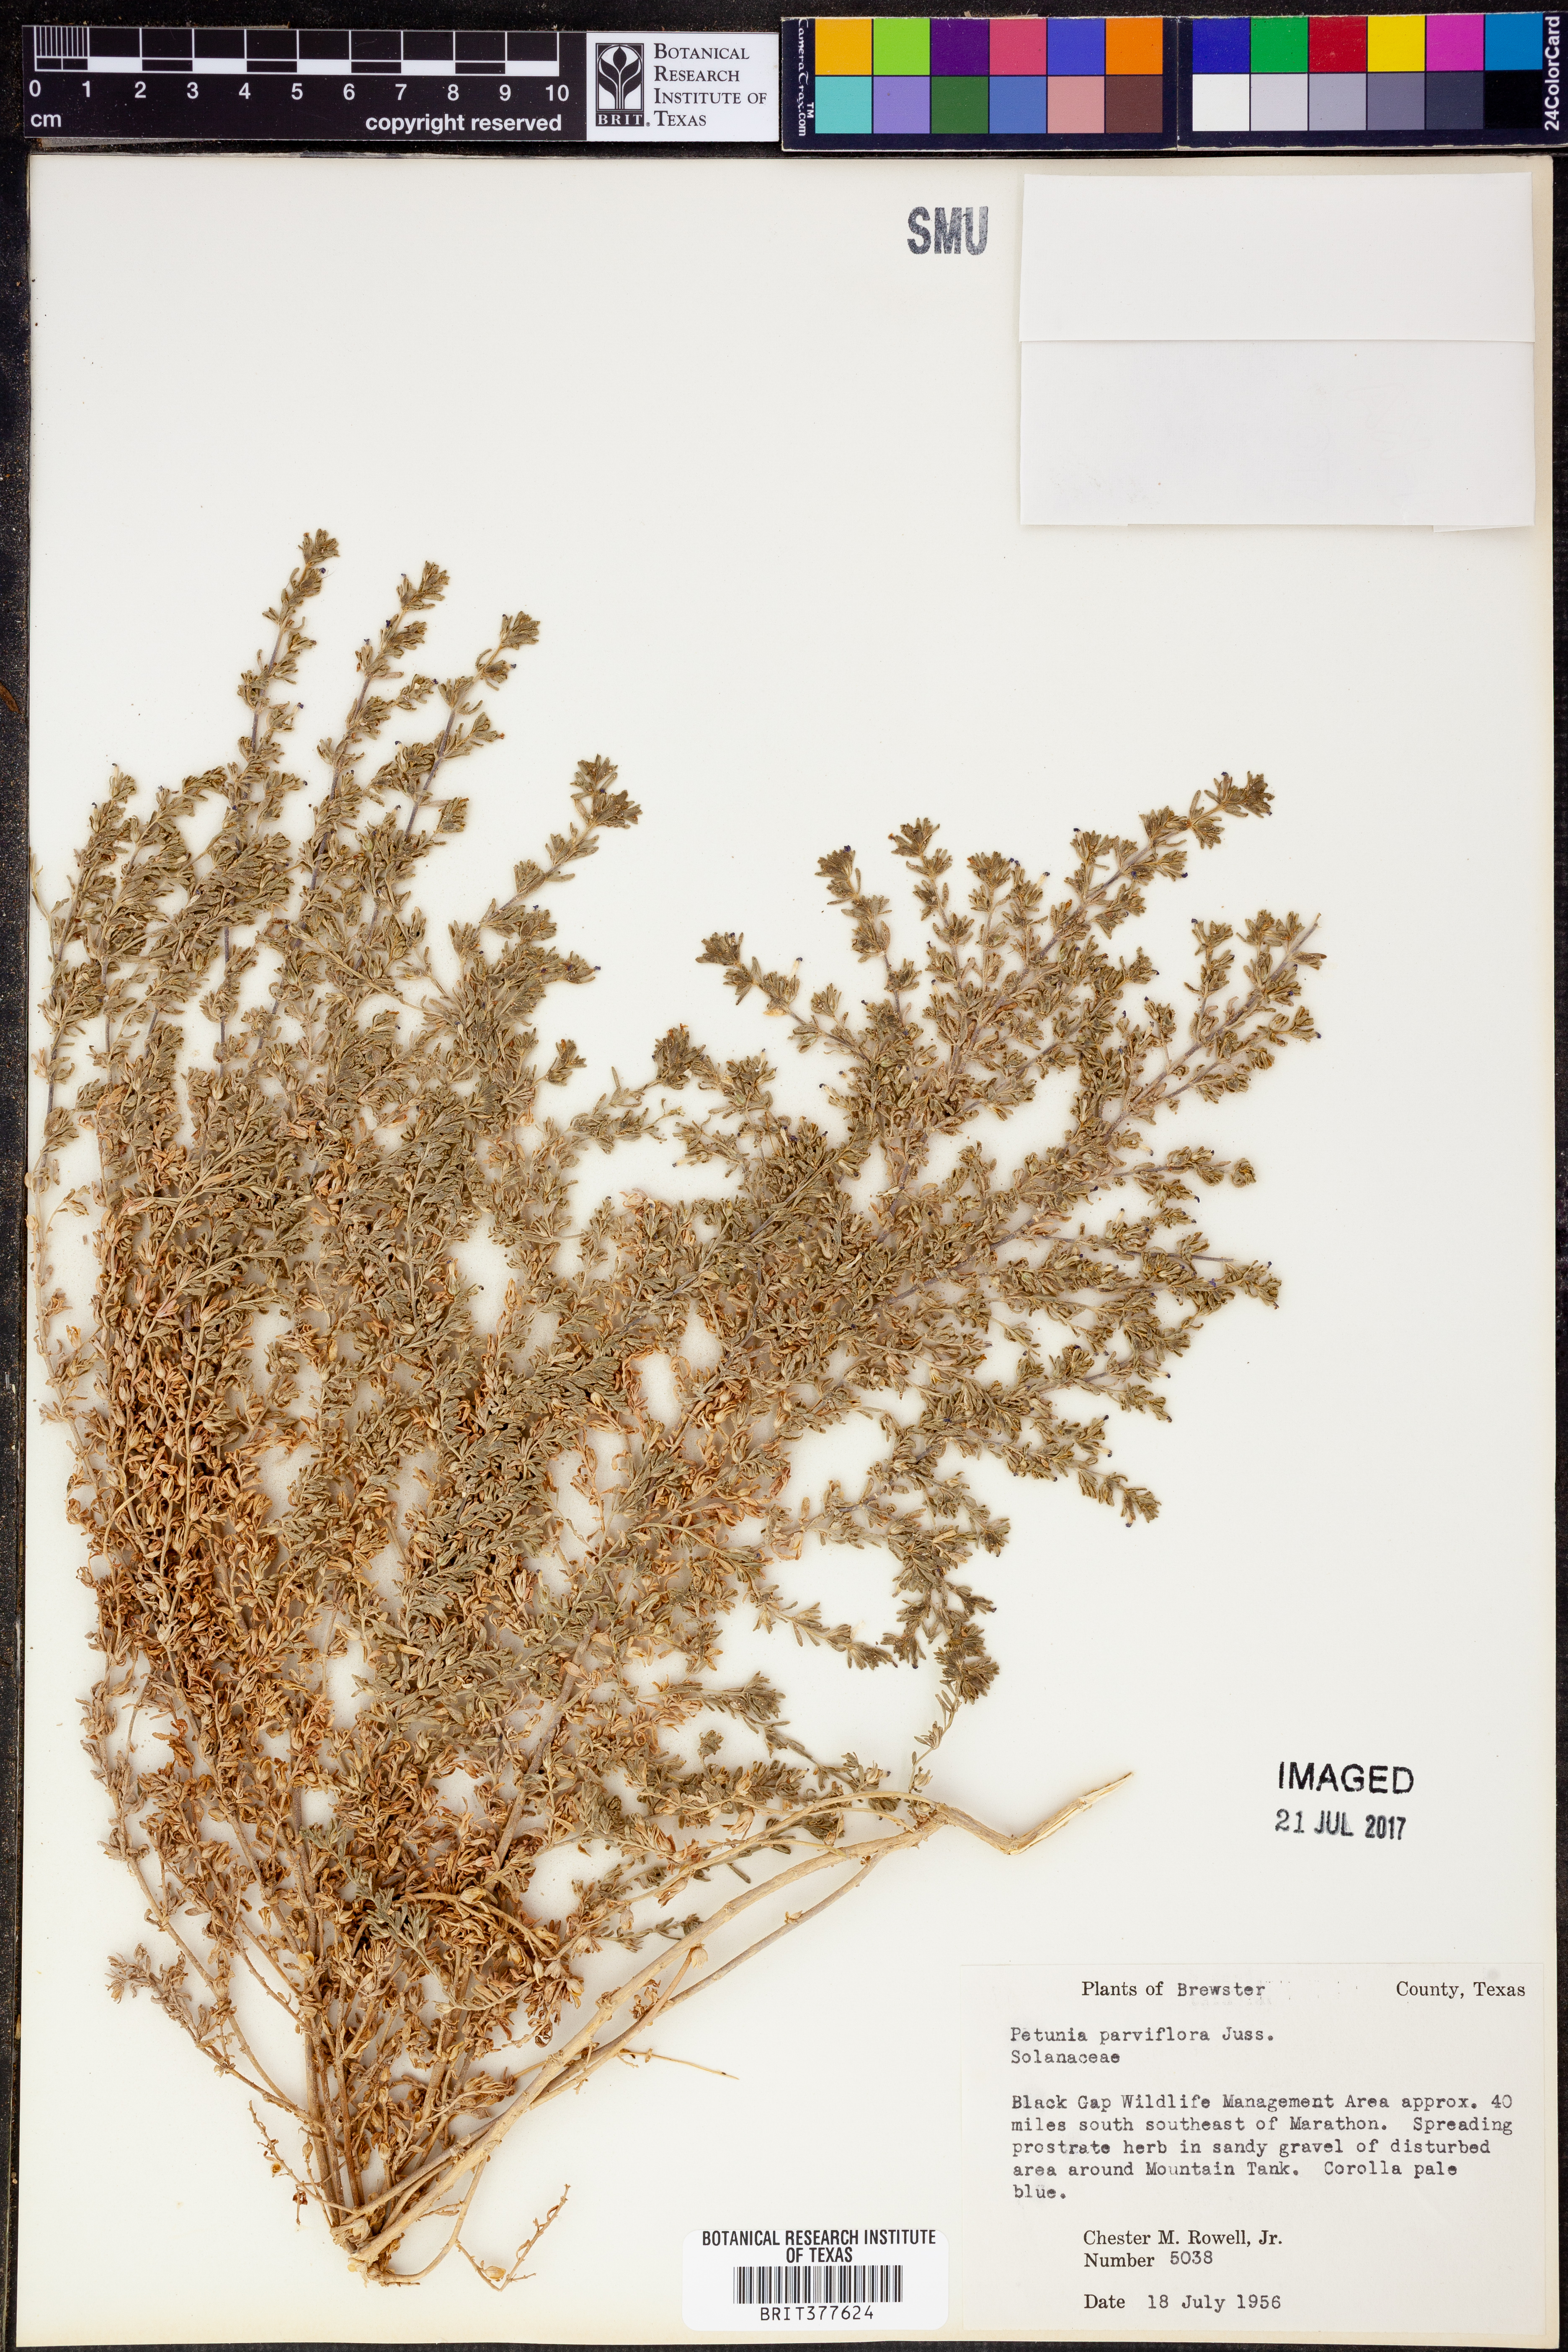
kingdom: Plantae
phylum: Tracheophyta
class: Magnoliopsida
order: Solanales
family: Solanaceae
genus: Calibrachoa
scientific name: Calibrachoa parviflora
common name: Seaside petunia
